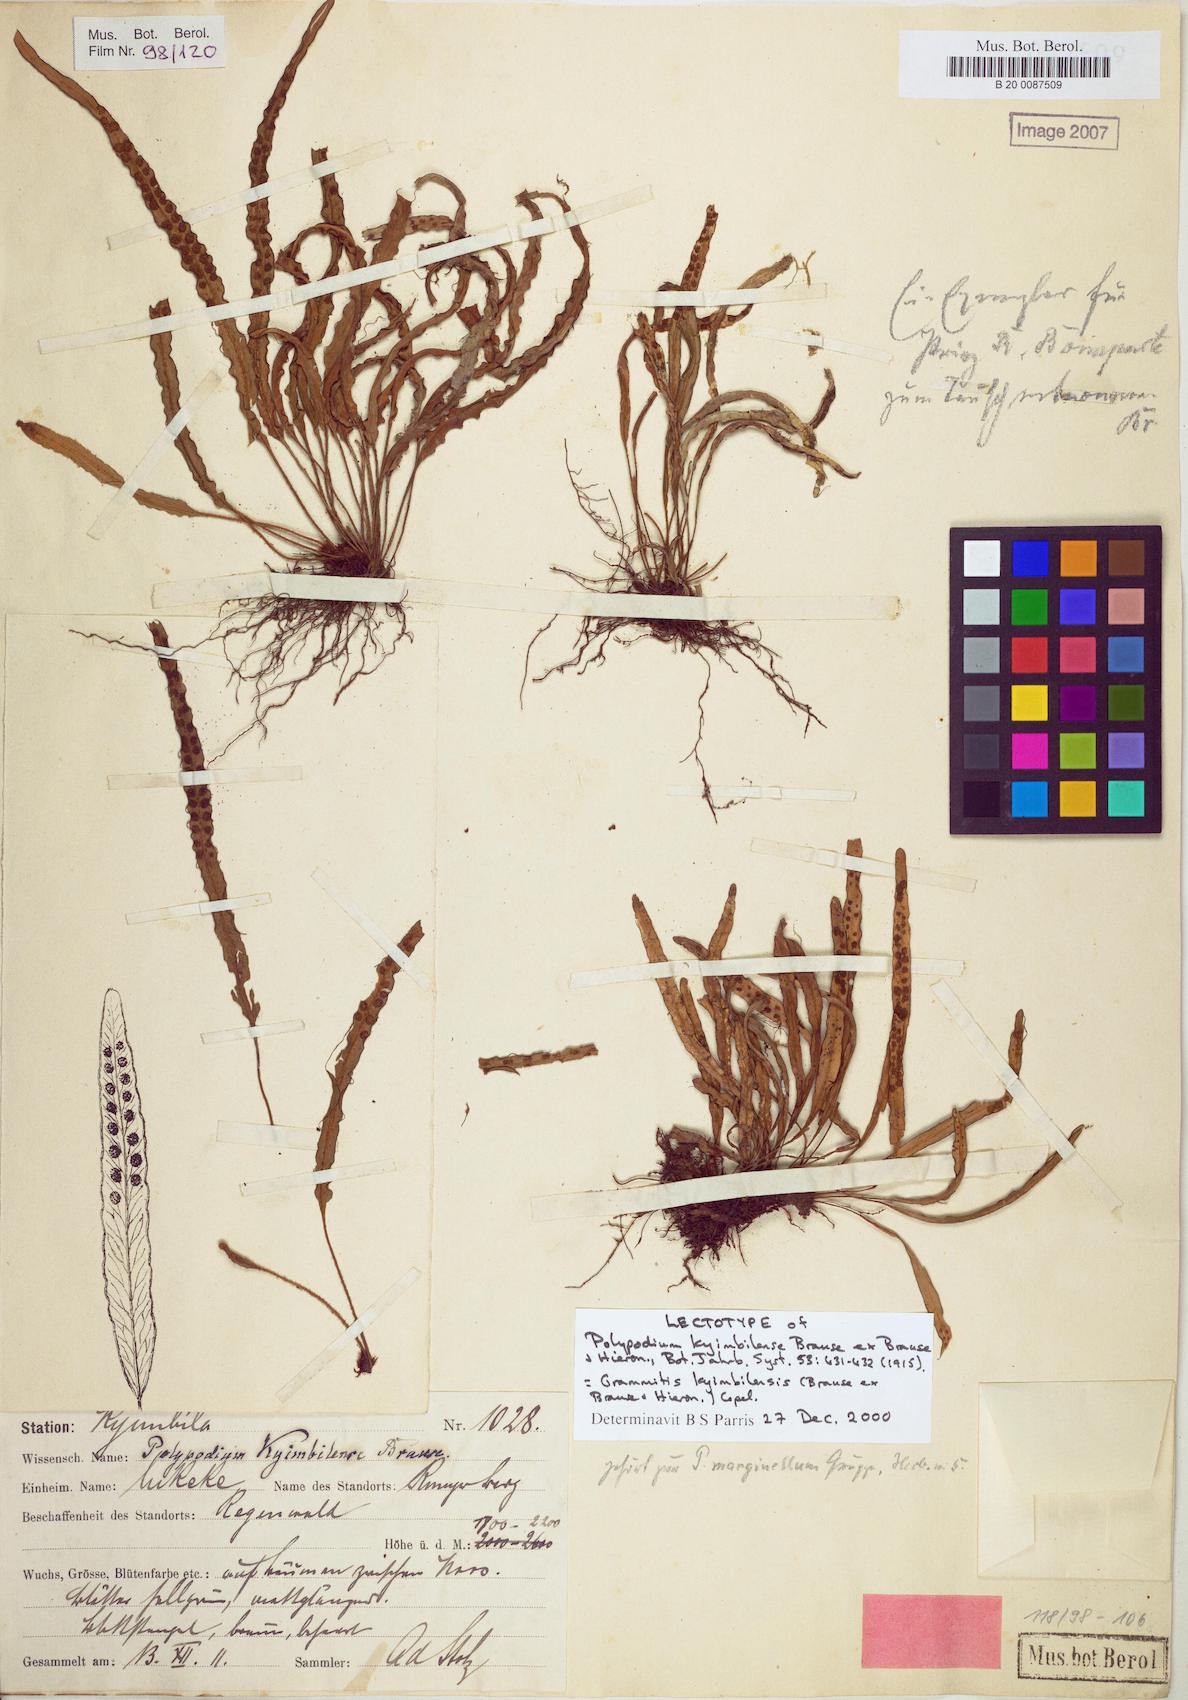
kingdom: Plantae
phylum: Tracheophyta
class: Polypodiopsida
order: Polypodiales
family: Polypodiaceae
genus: Grammitis
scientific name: Grammitis kyimbilensis
